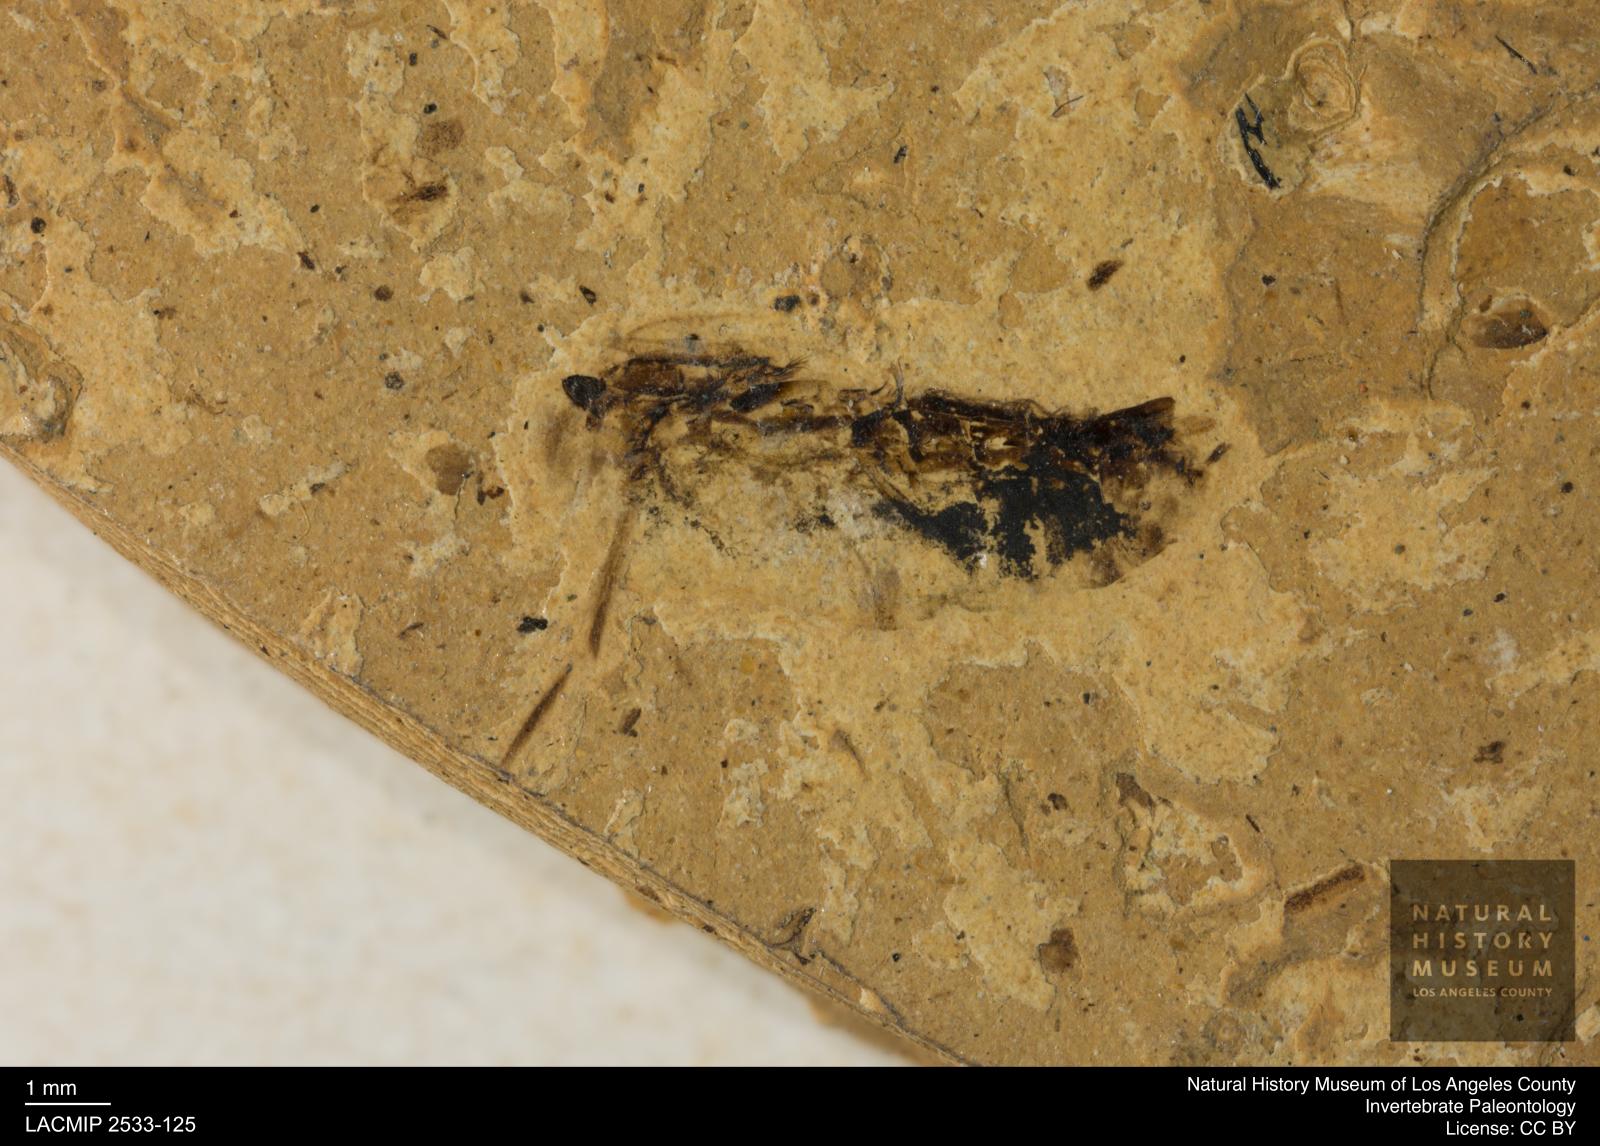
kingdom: Animalia
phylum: Arthropoda
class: Insecta
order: Hemiptera
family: Notonectidae
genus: Anisops
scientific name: Anisops Notonecta heydeni
